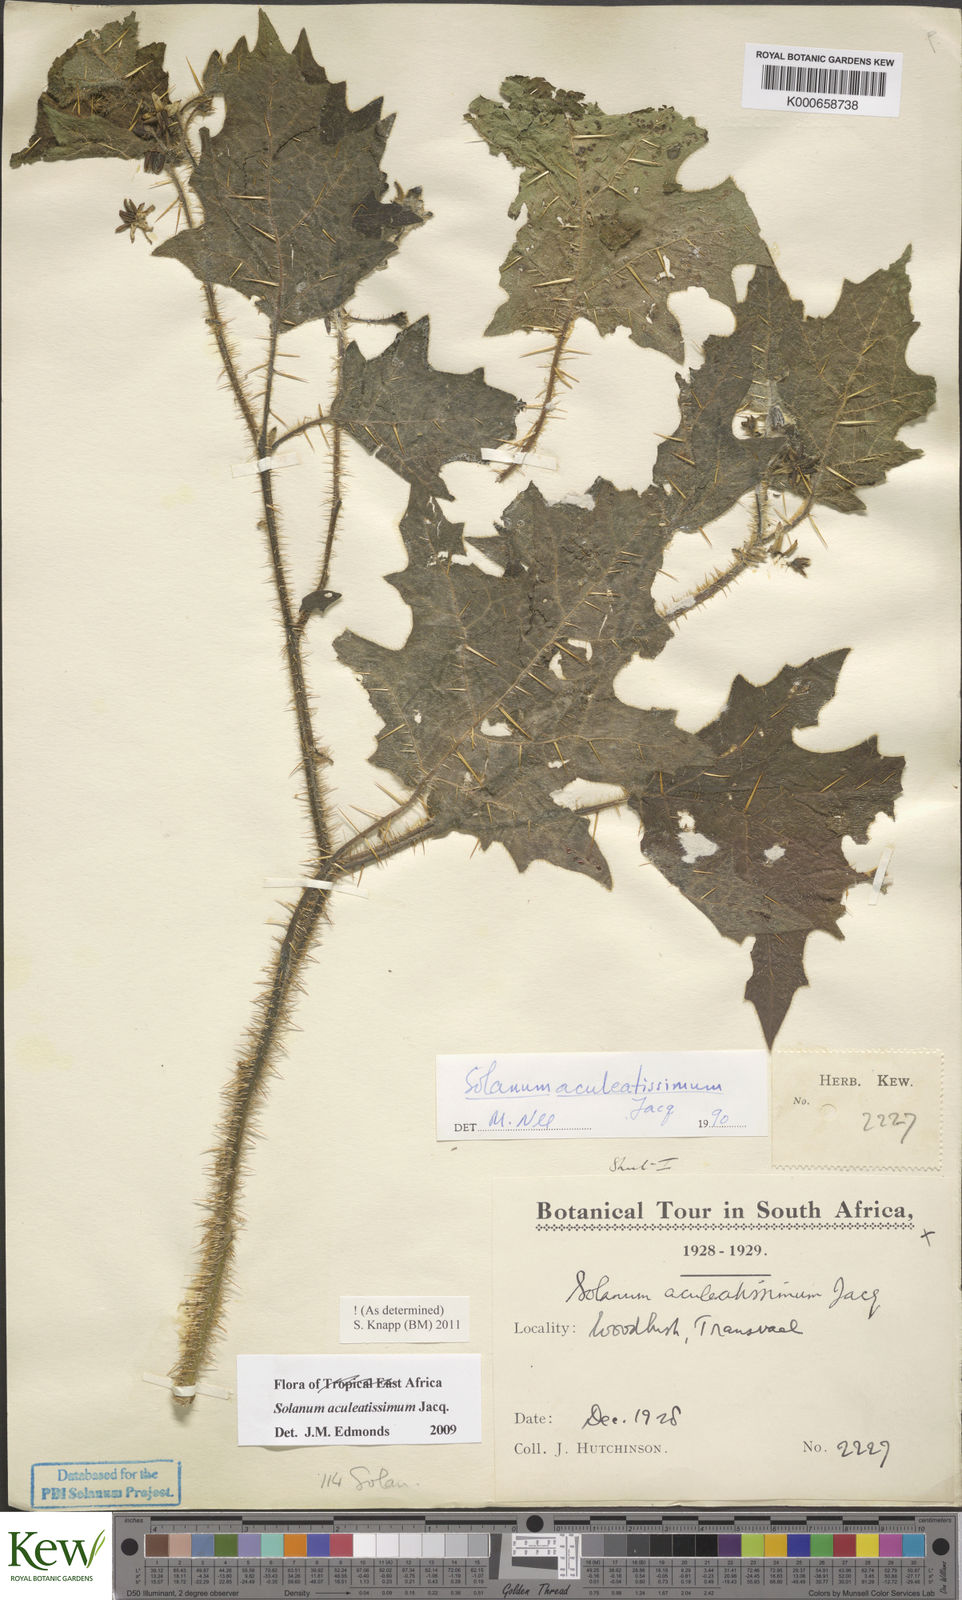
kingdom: Plantae
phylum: Tracheophyta
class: Magnoliopsida
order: Solanales
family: Solanaceae
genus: Solanum
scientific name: Solanum aculeatissimum
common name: Dutch eggplant
